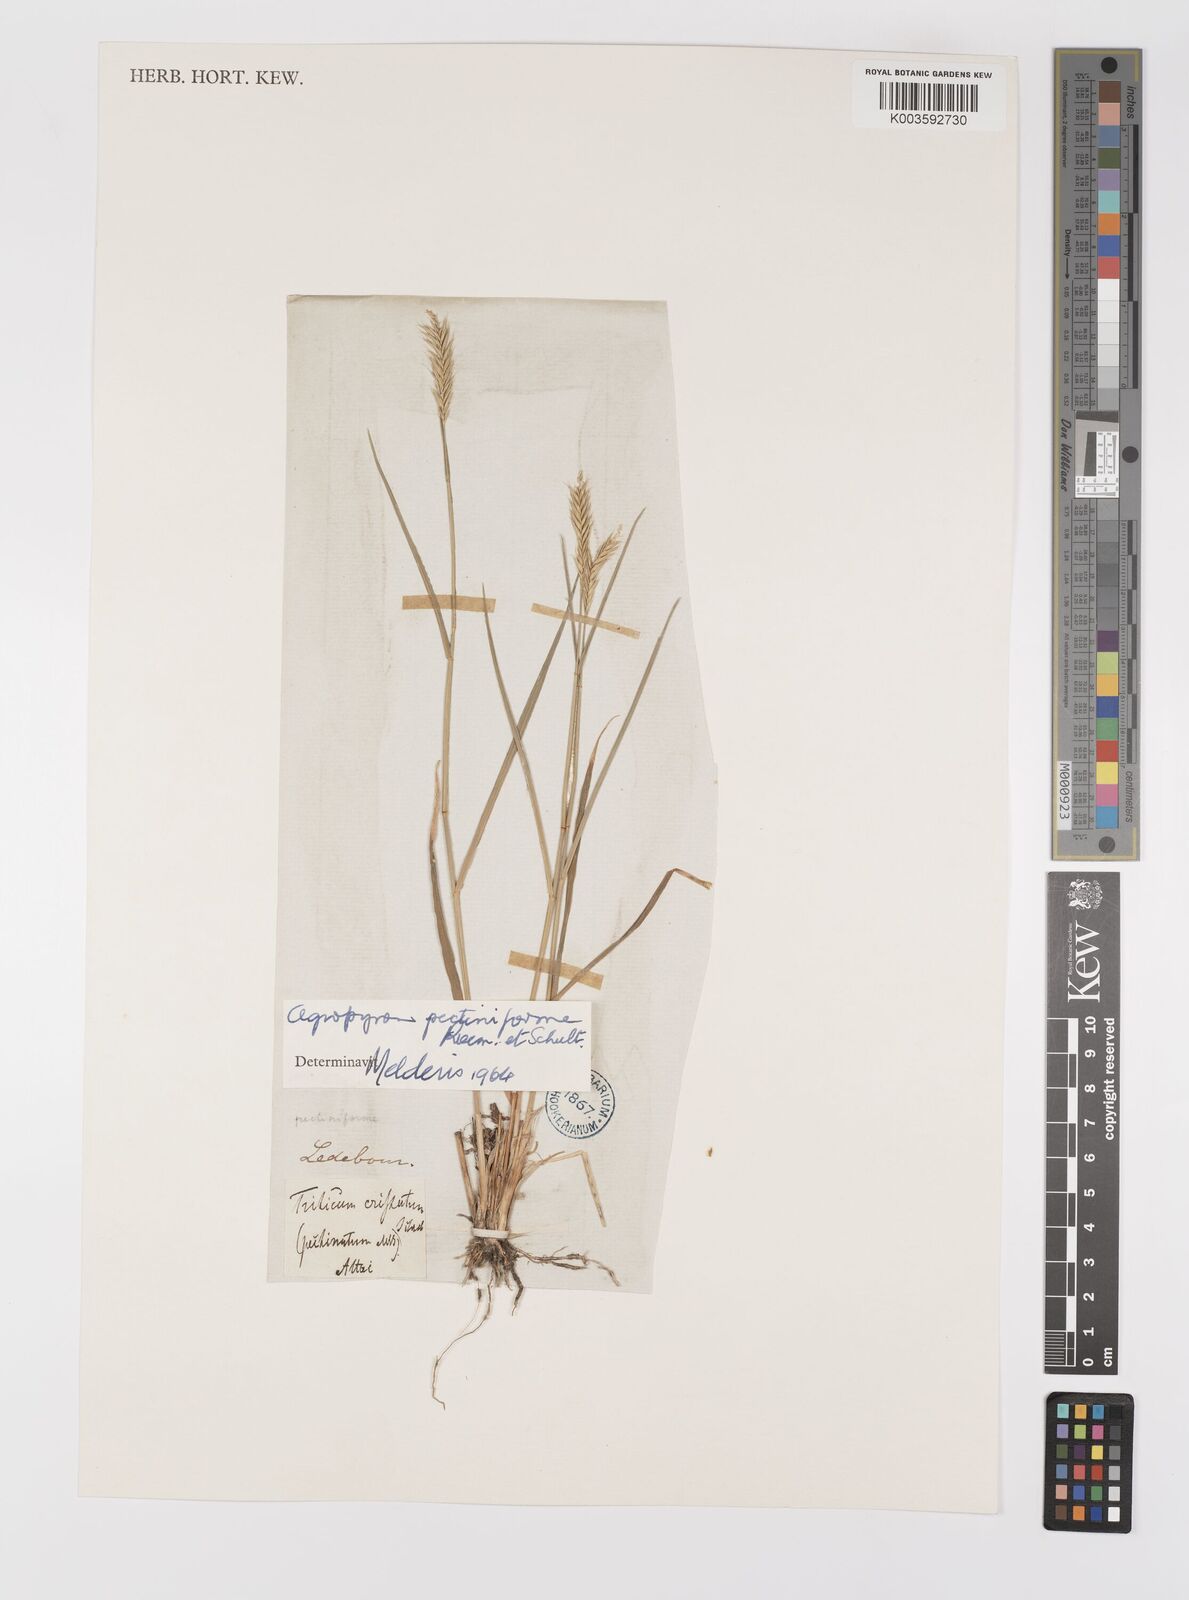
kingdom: Plantae
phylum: Tracheophyta
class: Liliopsida
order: Poales
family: Poaceae
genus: Agropyron
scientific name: Agropyron cristatum
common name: Crested wheatgrass
